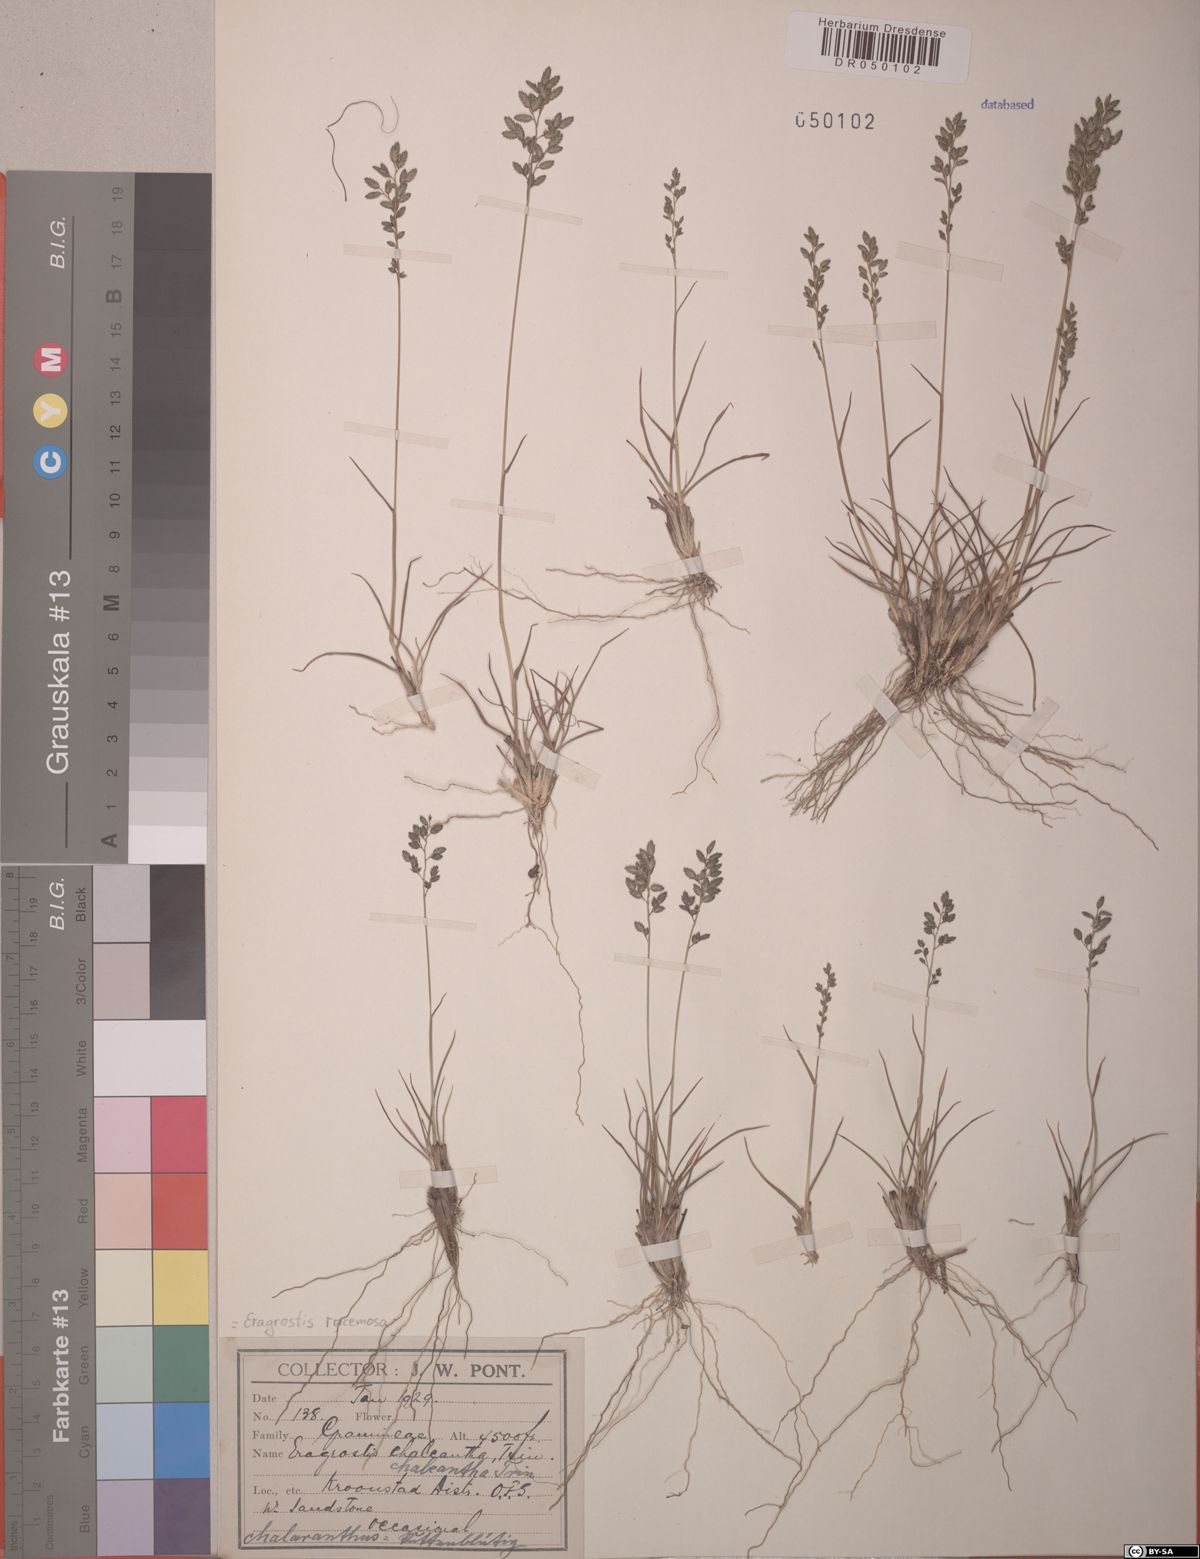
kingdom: Plantae
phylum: Tracheophyta
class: Liliopsida
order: Poales
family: Poaceae
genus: Eragrostis
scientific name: Eragrostis racemosa
